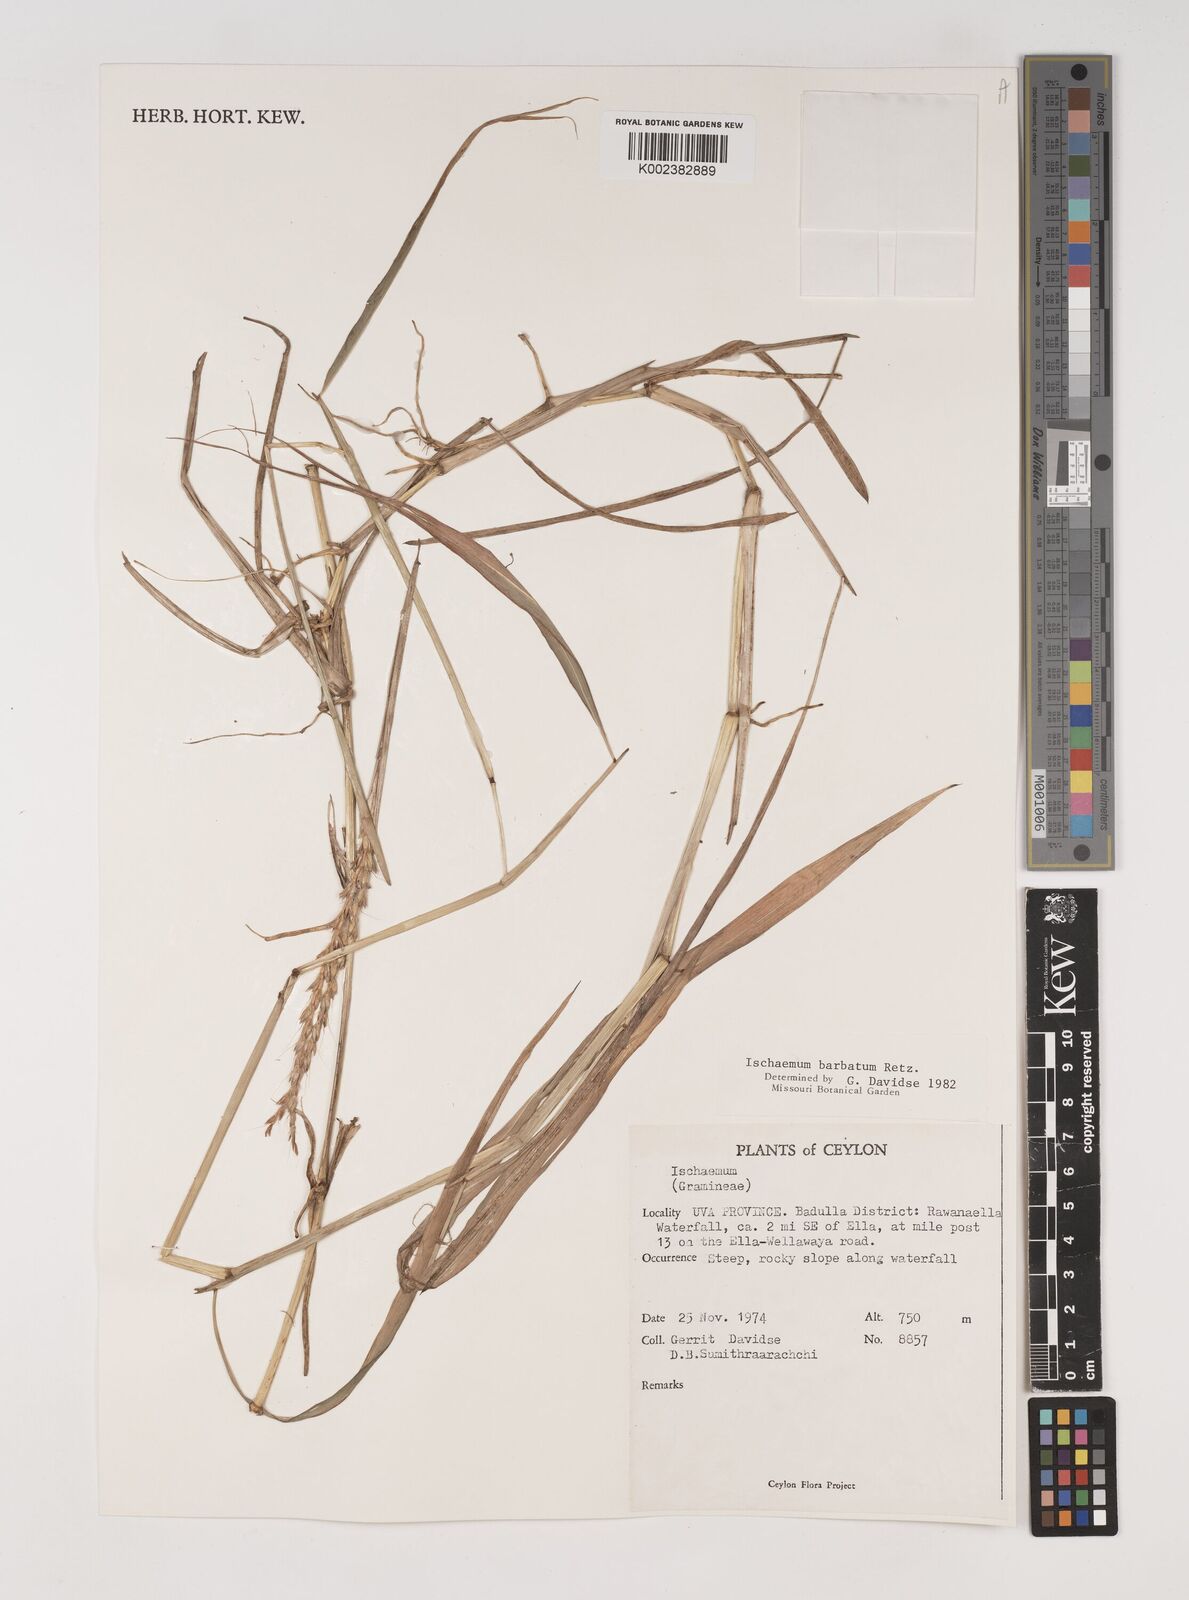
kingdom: Plantae
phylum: Tracheophyta
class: Liliopsida
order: Poales
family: Poaceae
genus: Ischaemum
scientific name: Ischaemum
